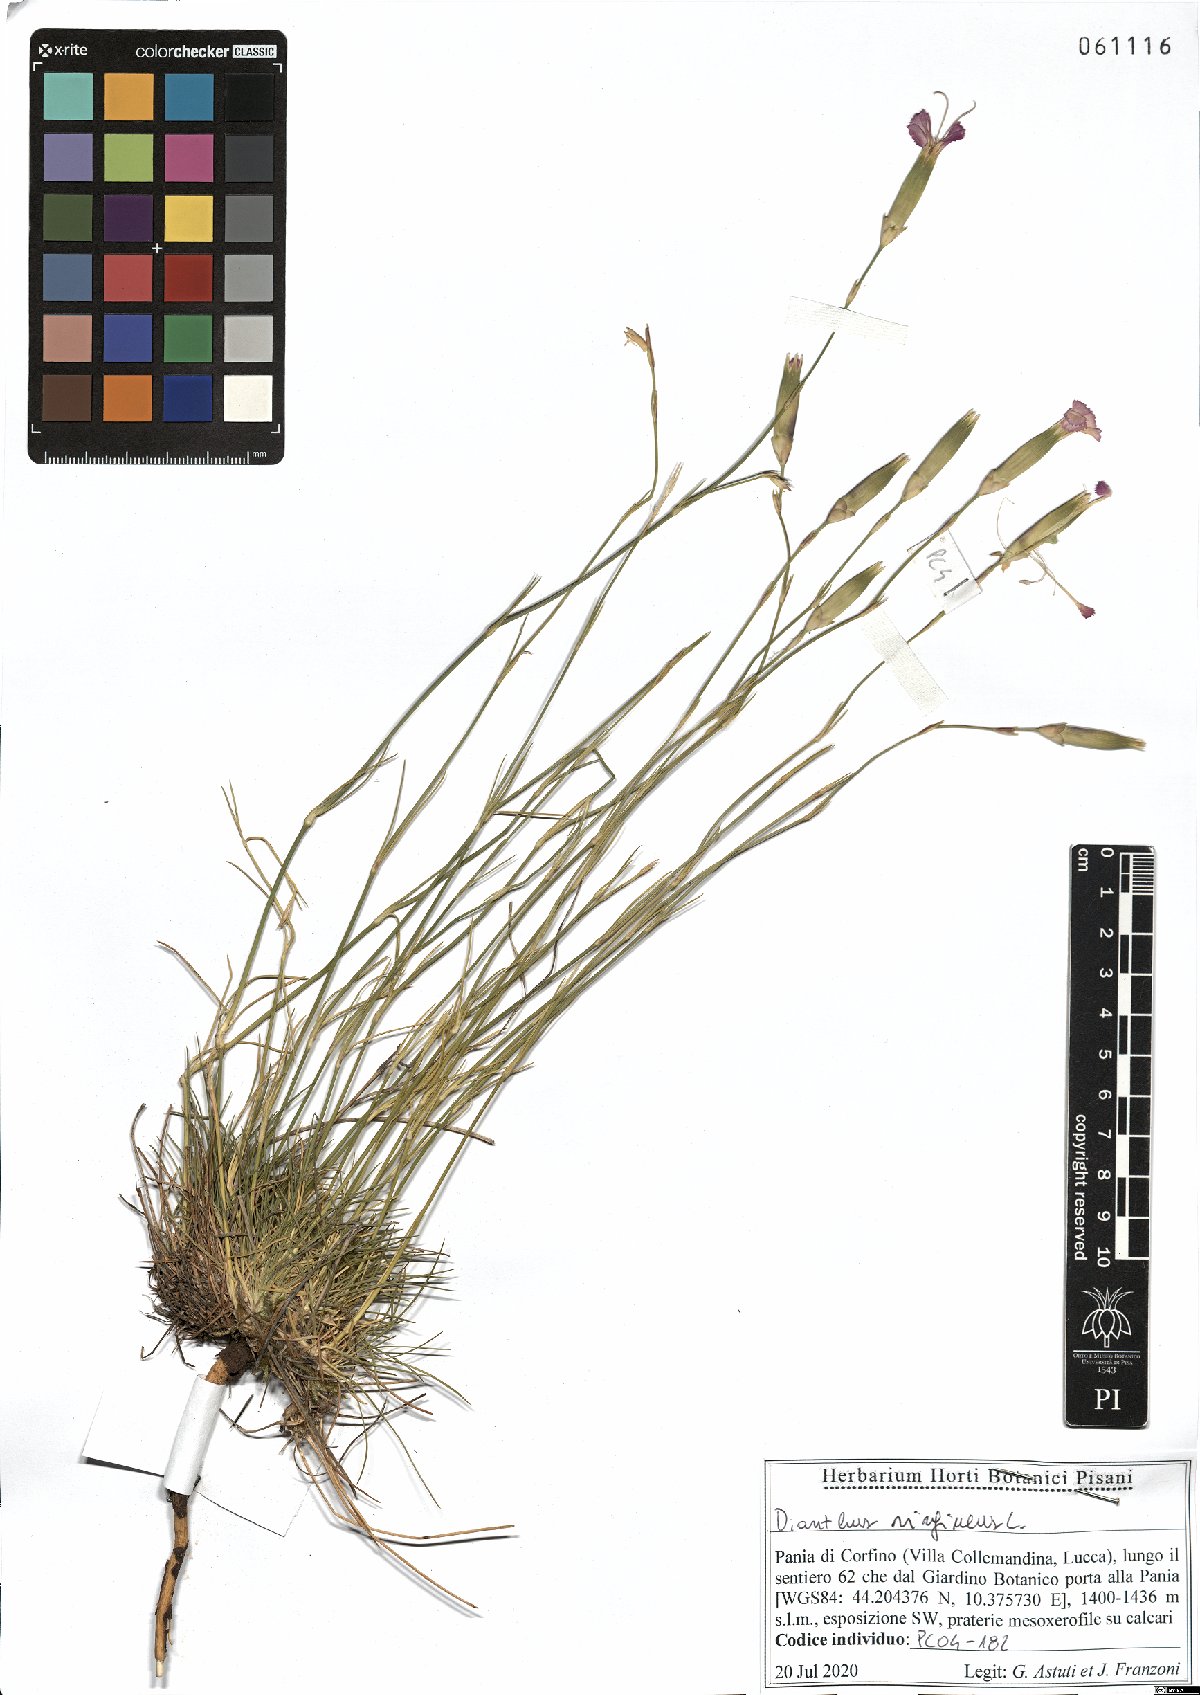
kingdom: Plantae
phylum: Tracheophyta
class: Magnoliopsida
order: Caryophyllales
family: Caryophyllaceae
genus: Dianthus
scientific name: Dianthus virgineus
